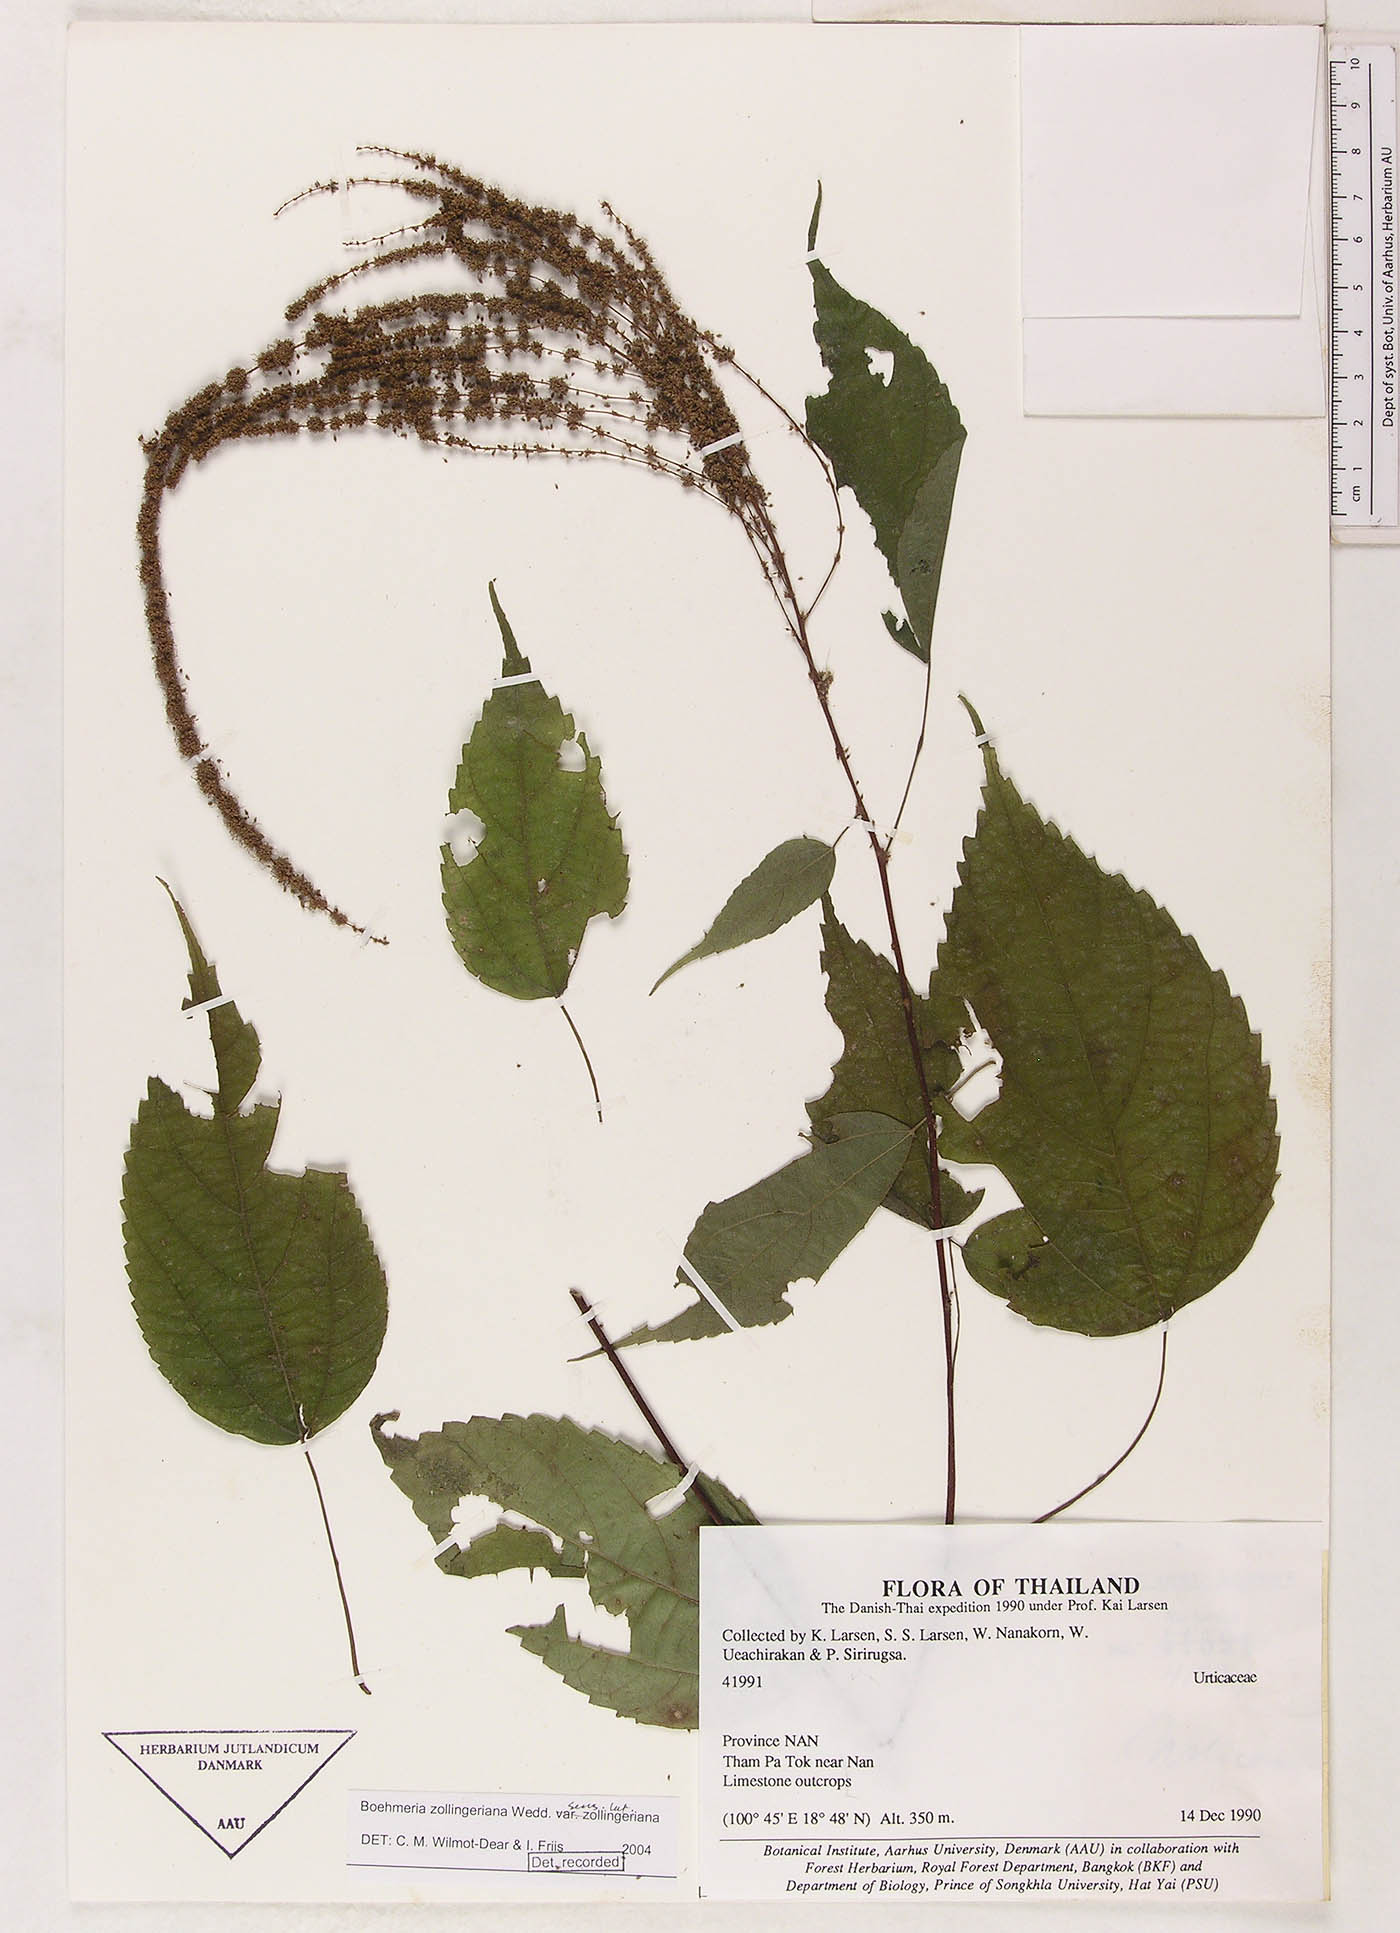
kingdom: Plantae
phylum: Tracheophyta
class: Magnoliopsida
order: Rosales
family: Urticaceae
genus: Boehmeria
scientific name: Boehmeria zollingeriana
